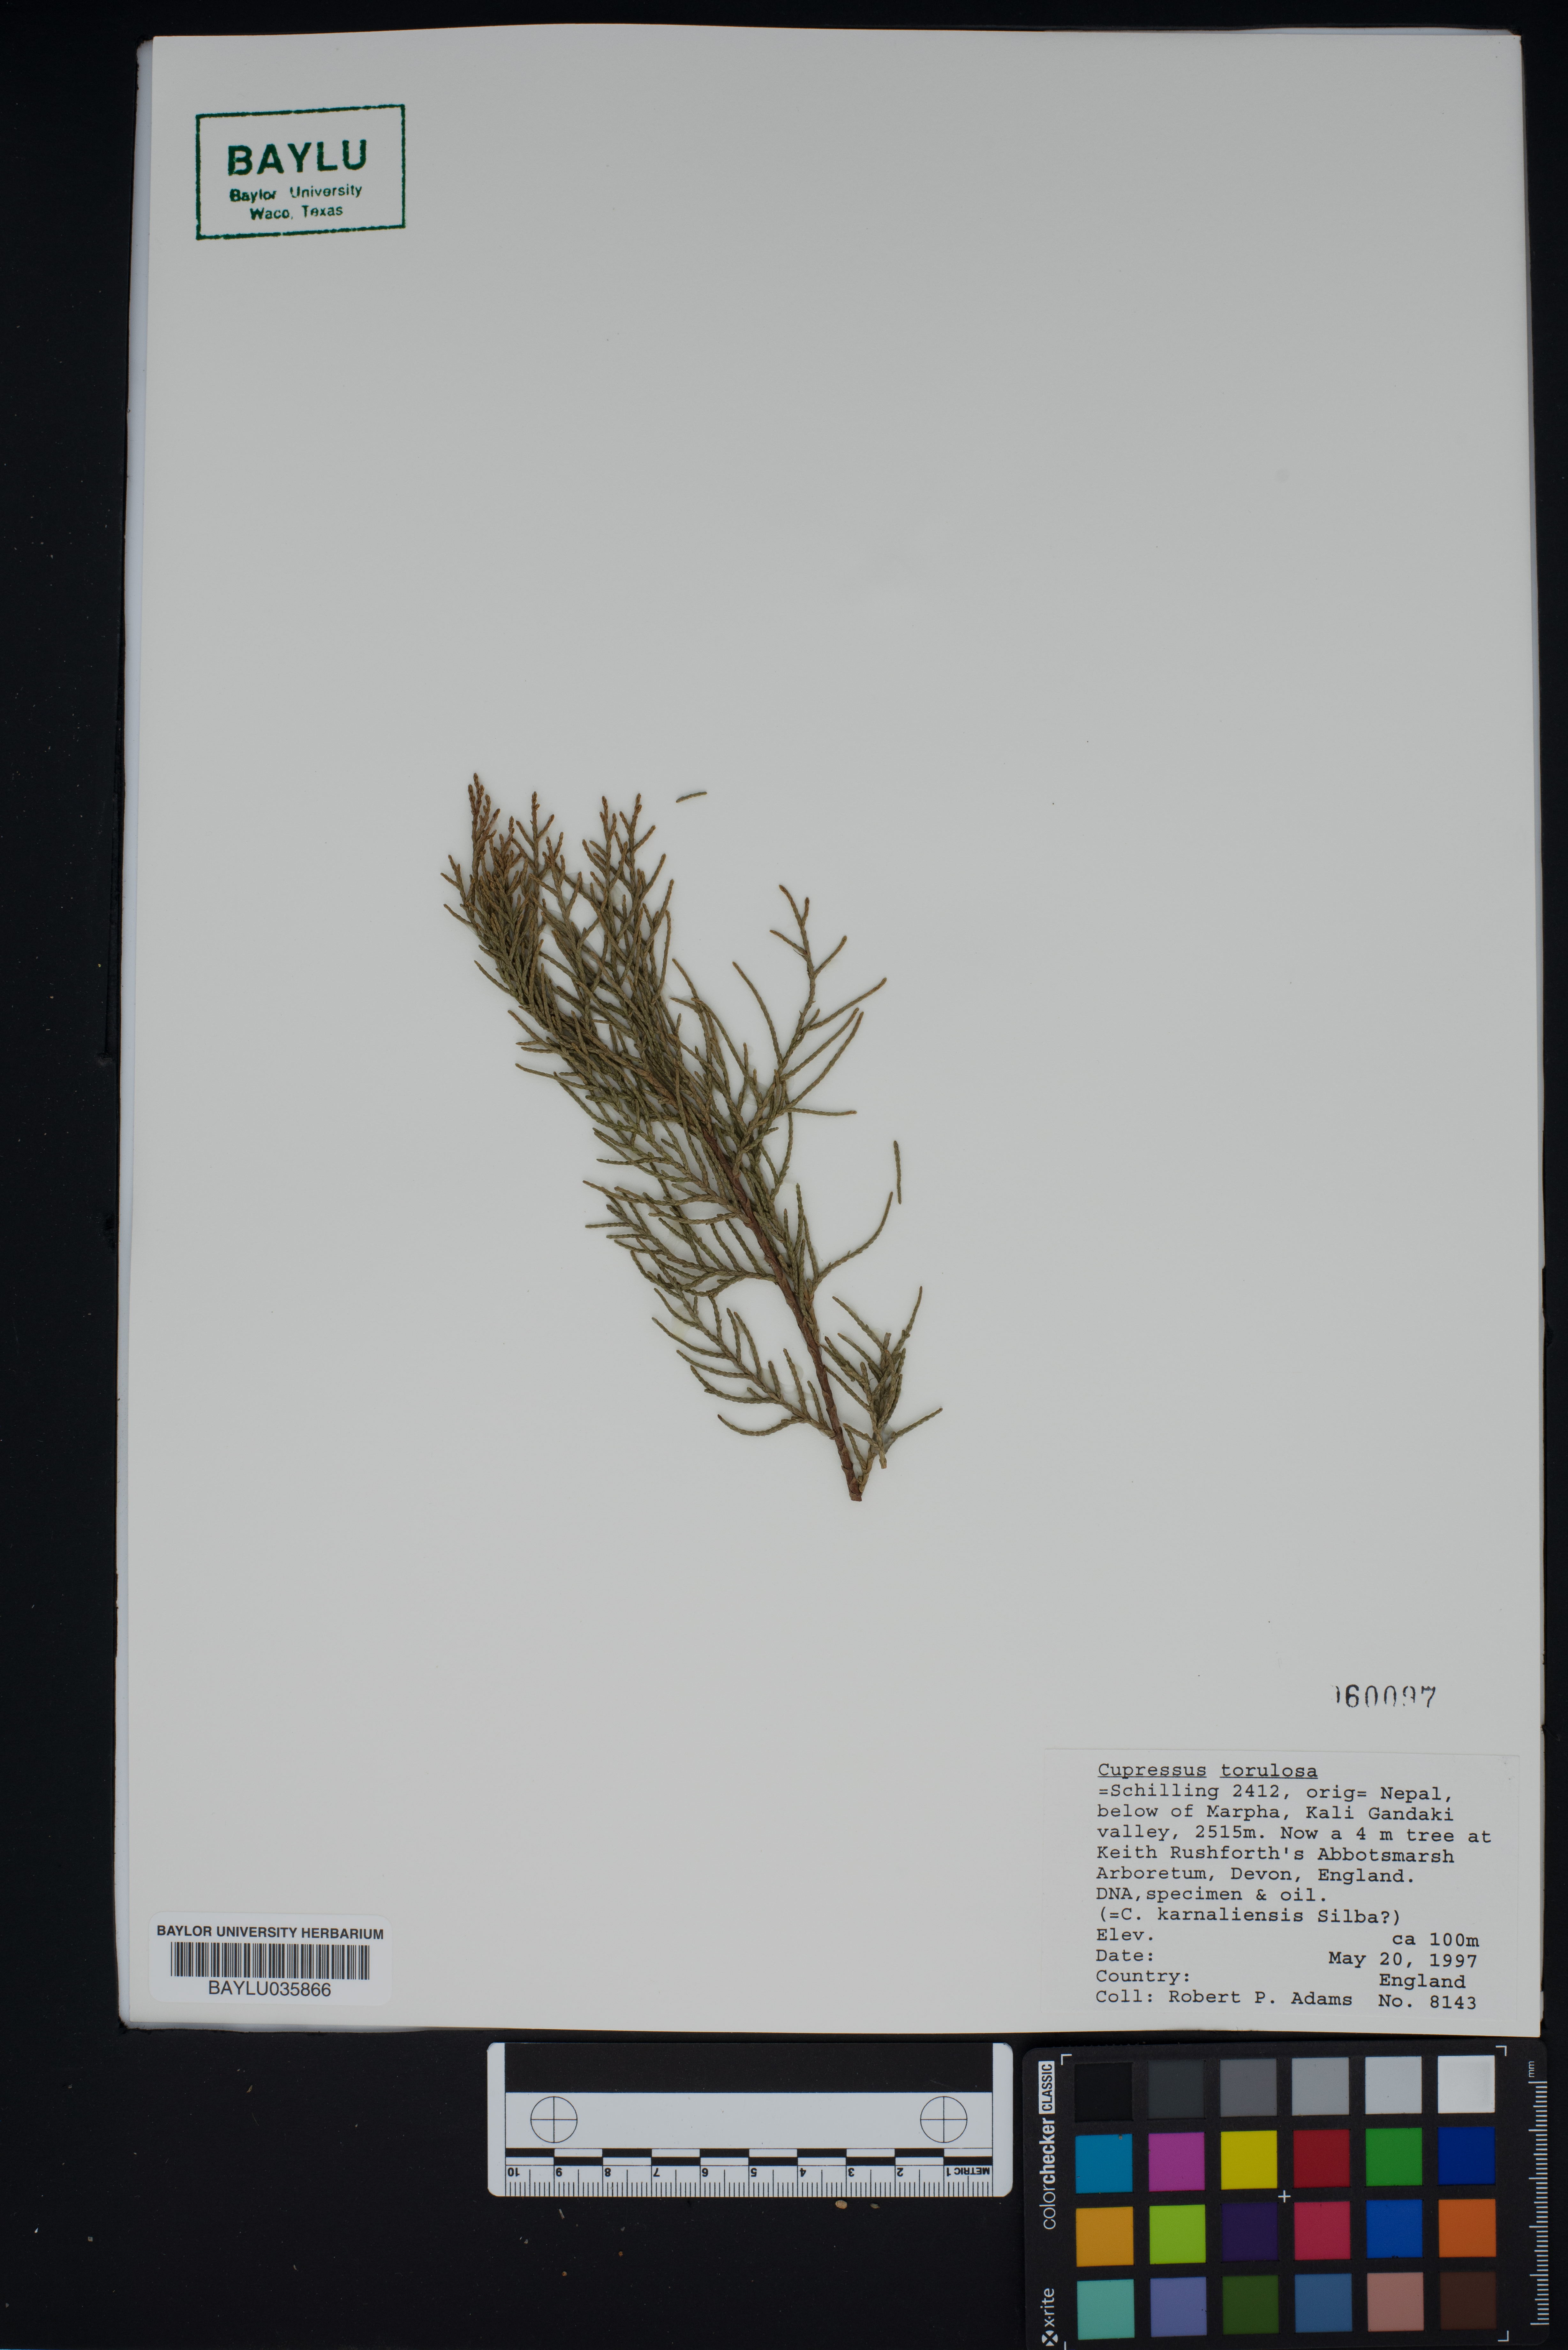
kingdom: Plantae
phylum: Tracheophyta
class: Pinopsida
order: Pinales
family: Cupressaceae
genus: Cupressus
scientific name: Cupressus torulosa
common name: Himalayan cypress
